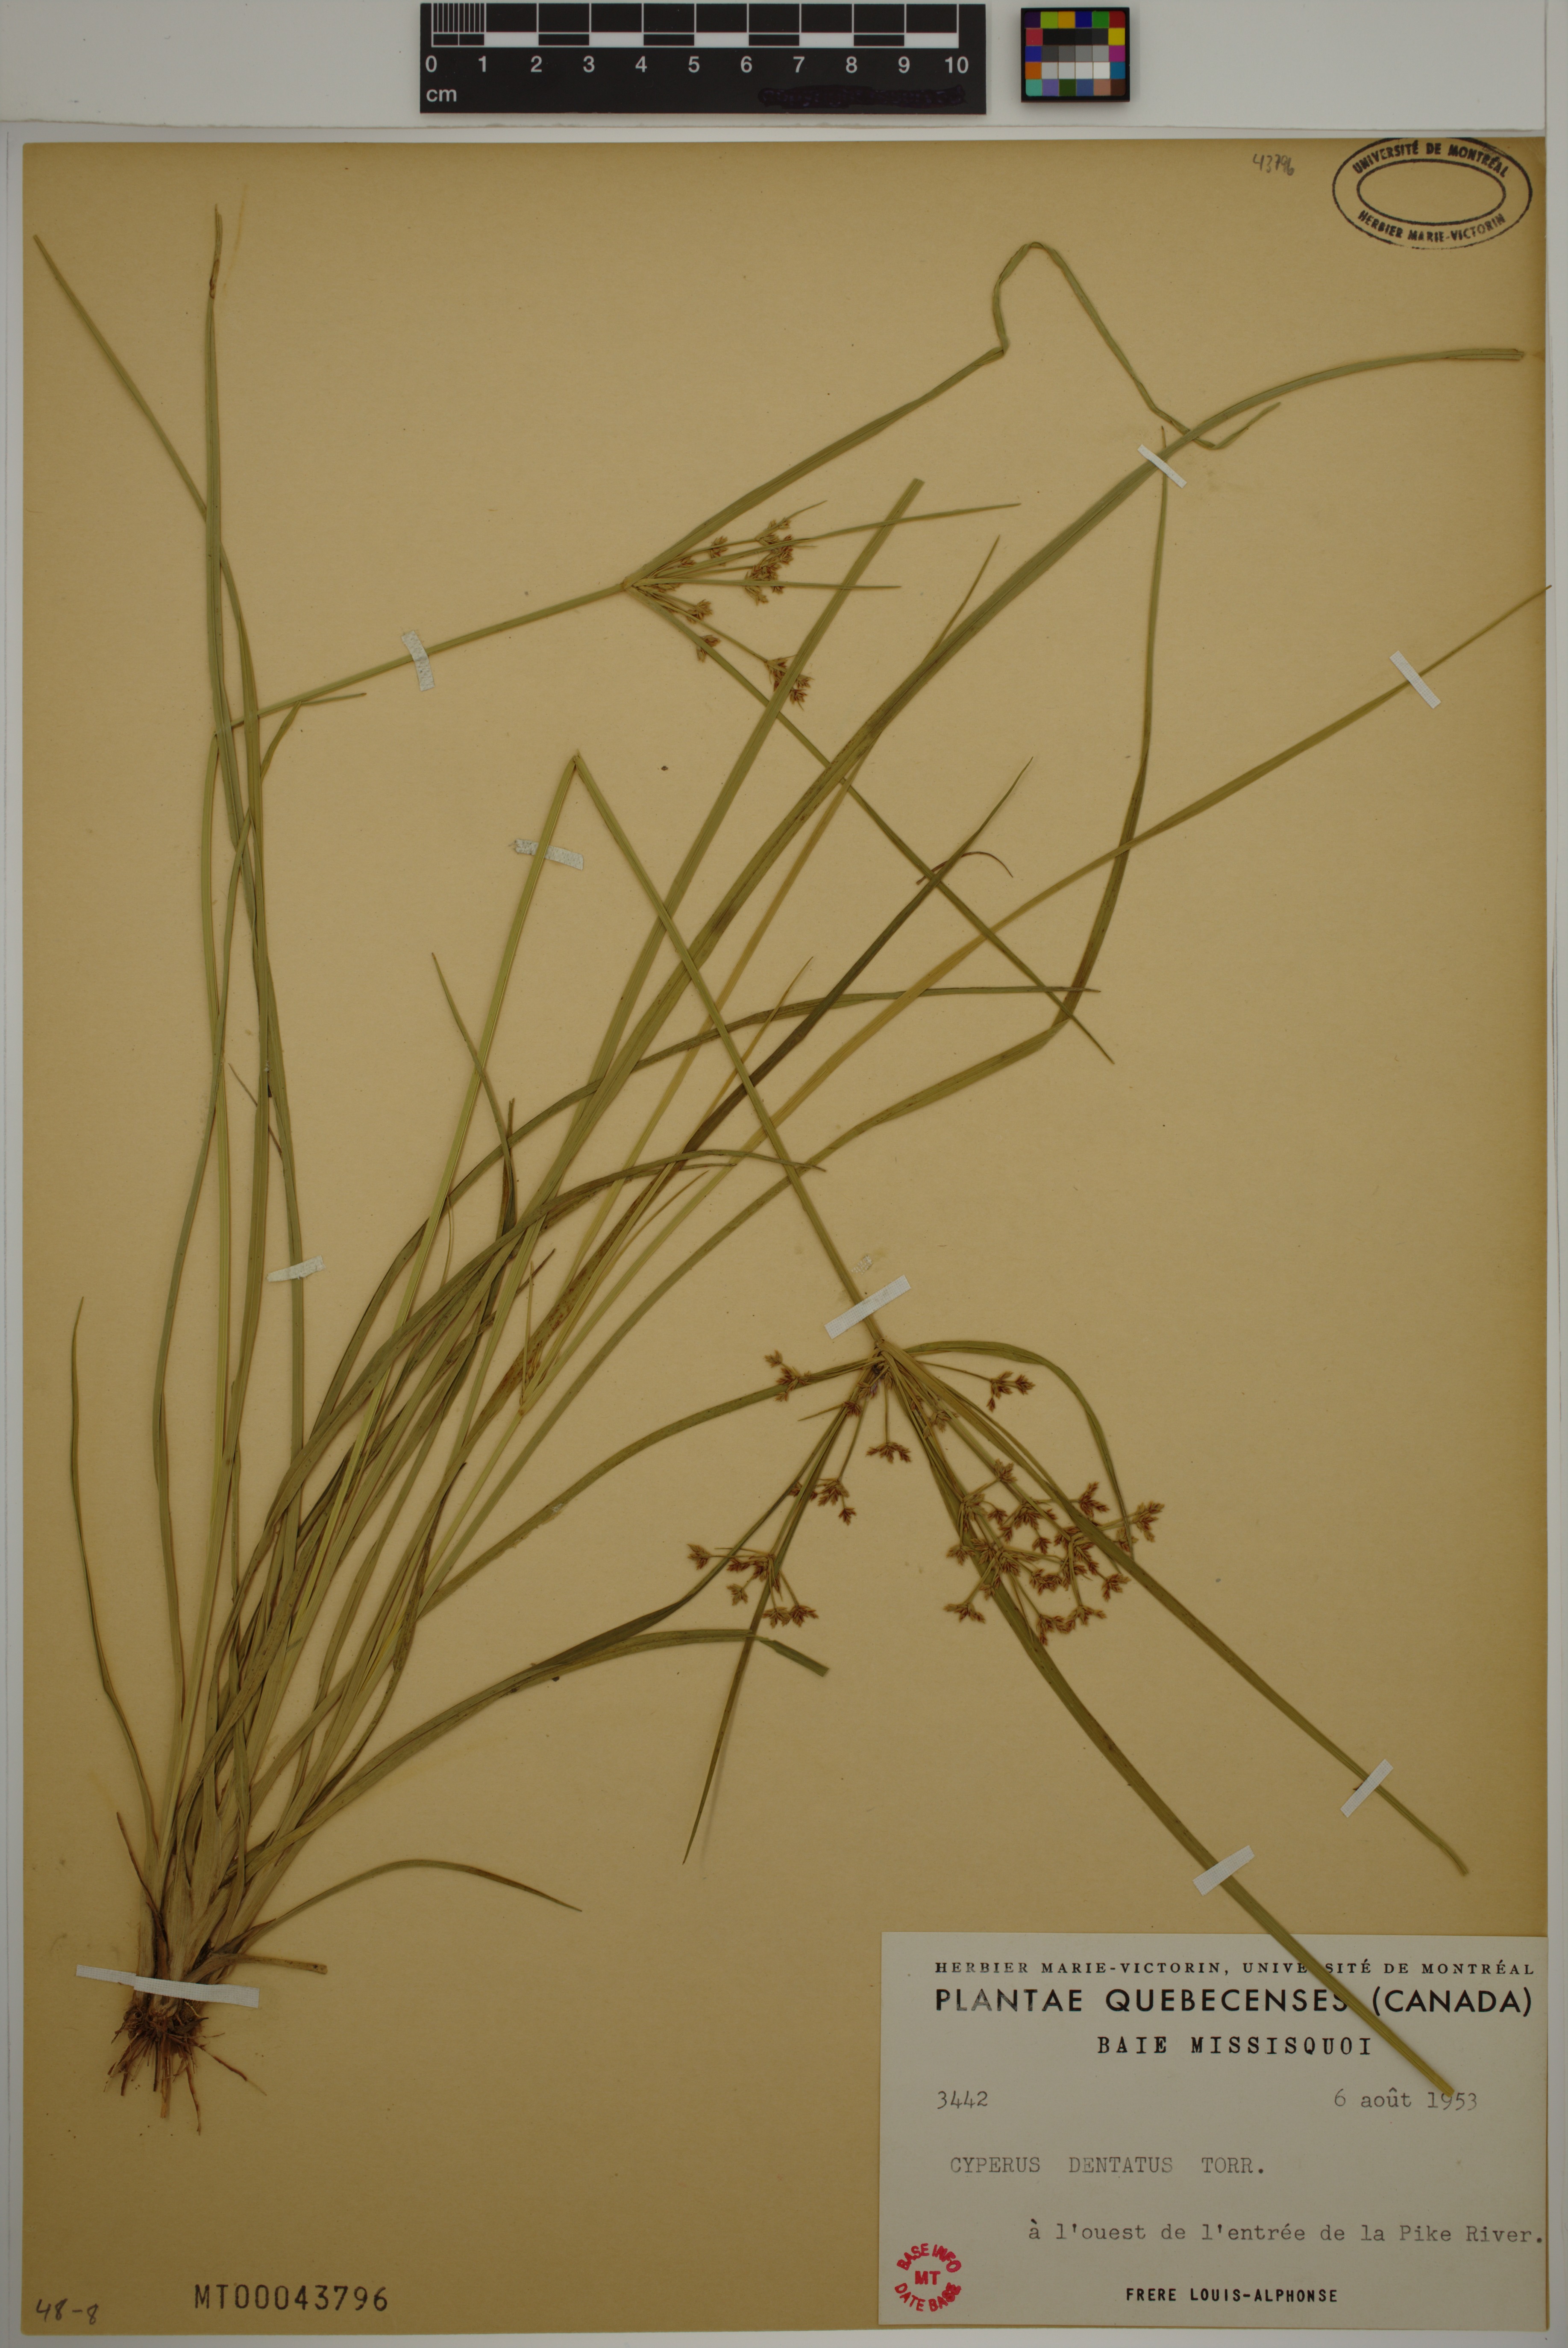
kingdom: Plantae
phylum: Tracheophyta
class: Liliopsida
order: Poales
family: Cyperaceae
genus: Cyperus
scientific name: Cyperus dentatus
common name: Dentate umbrella sedge
